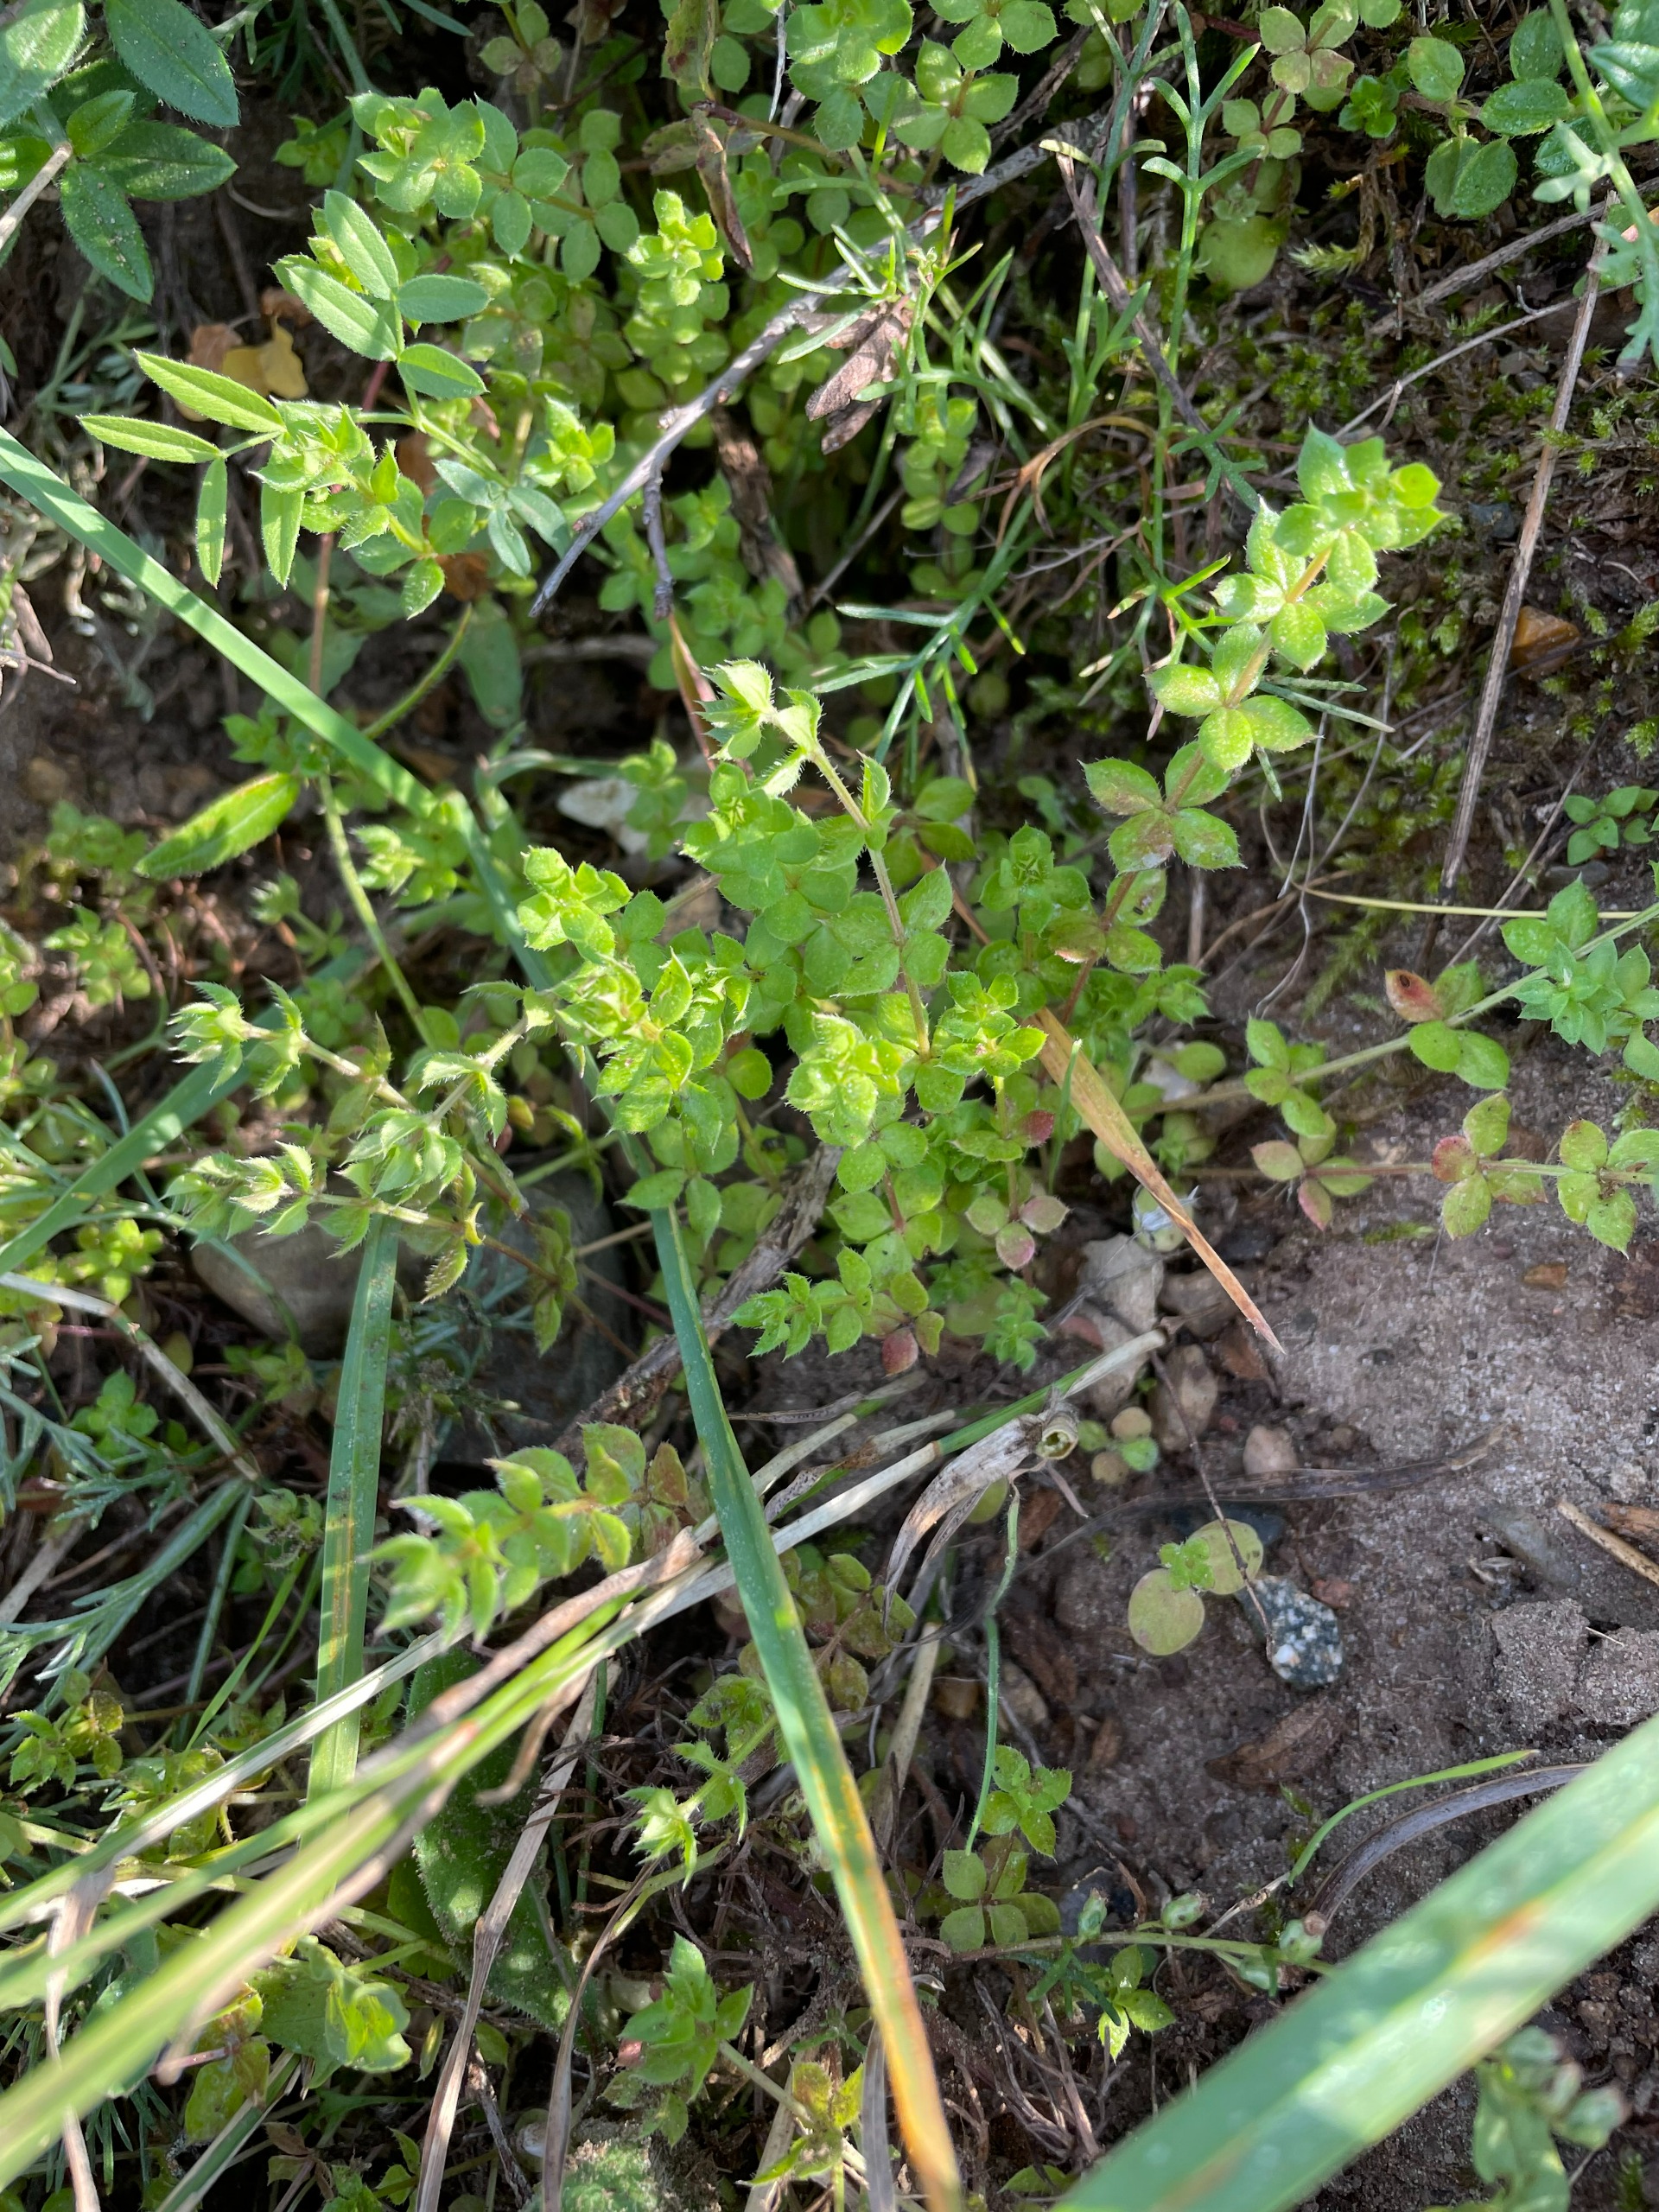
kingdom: Plantae
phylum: Tracheophyta
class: Magnoliopsida
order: Gentianales
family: Rubiaceae
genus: Sherardia
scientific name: Sherardia arvensis
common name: Blåstjerne
